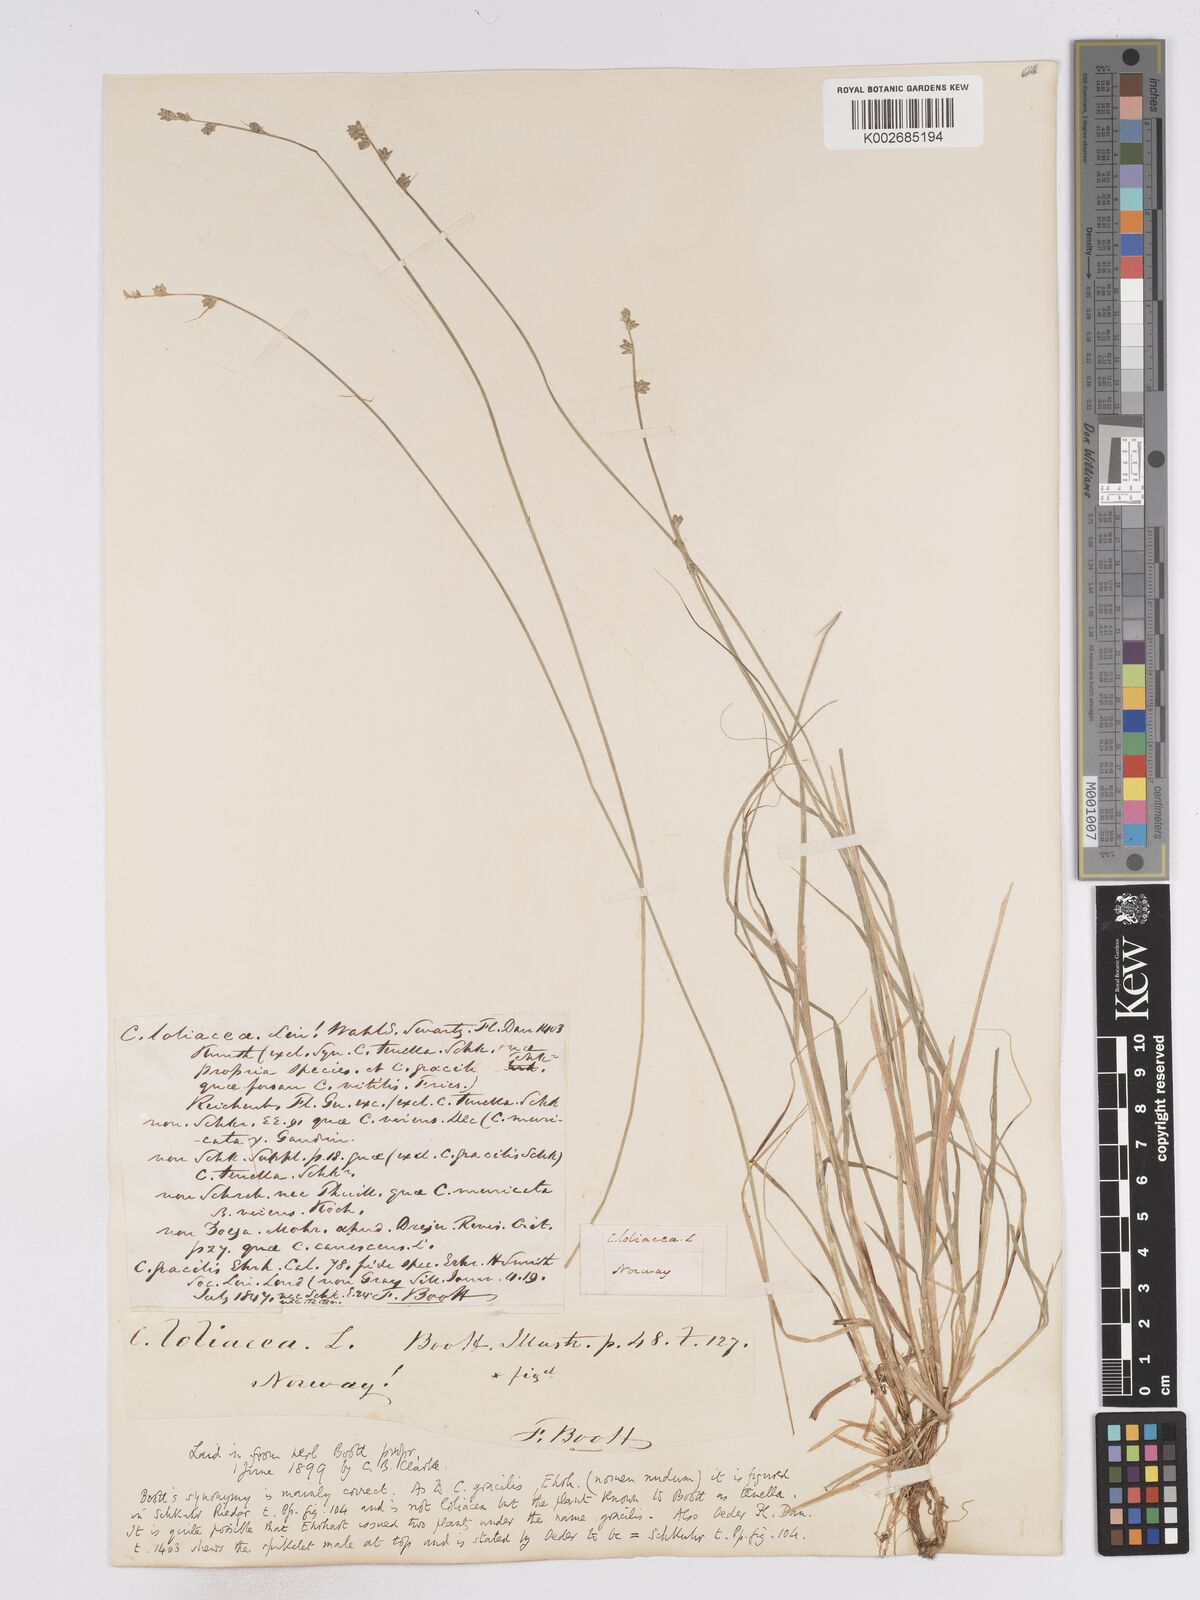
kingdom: Plantae
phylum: Tracheophyta
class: Liliopsida
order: Poales
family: Cyperaceae
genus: Carex
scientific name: Carex loliacea
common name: Ryegrass sedge
